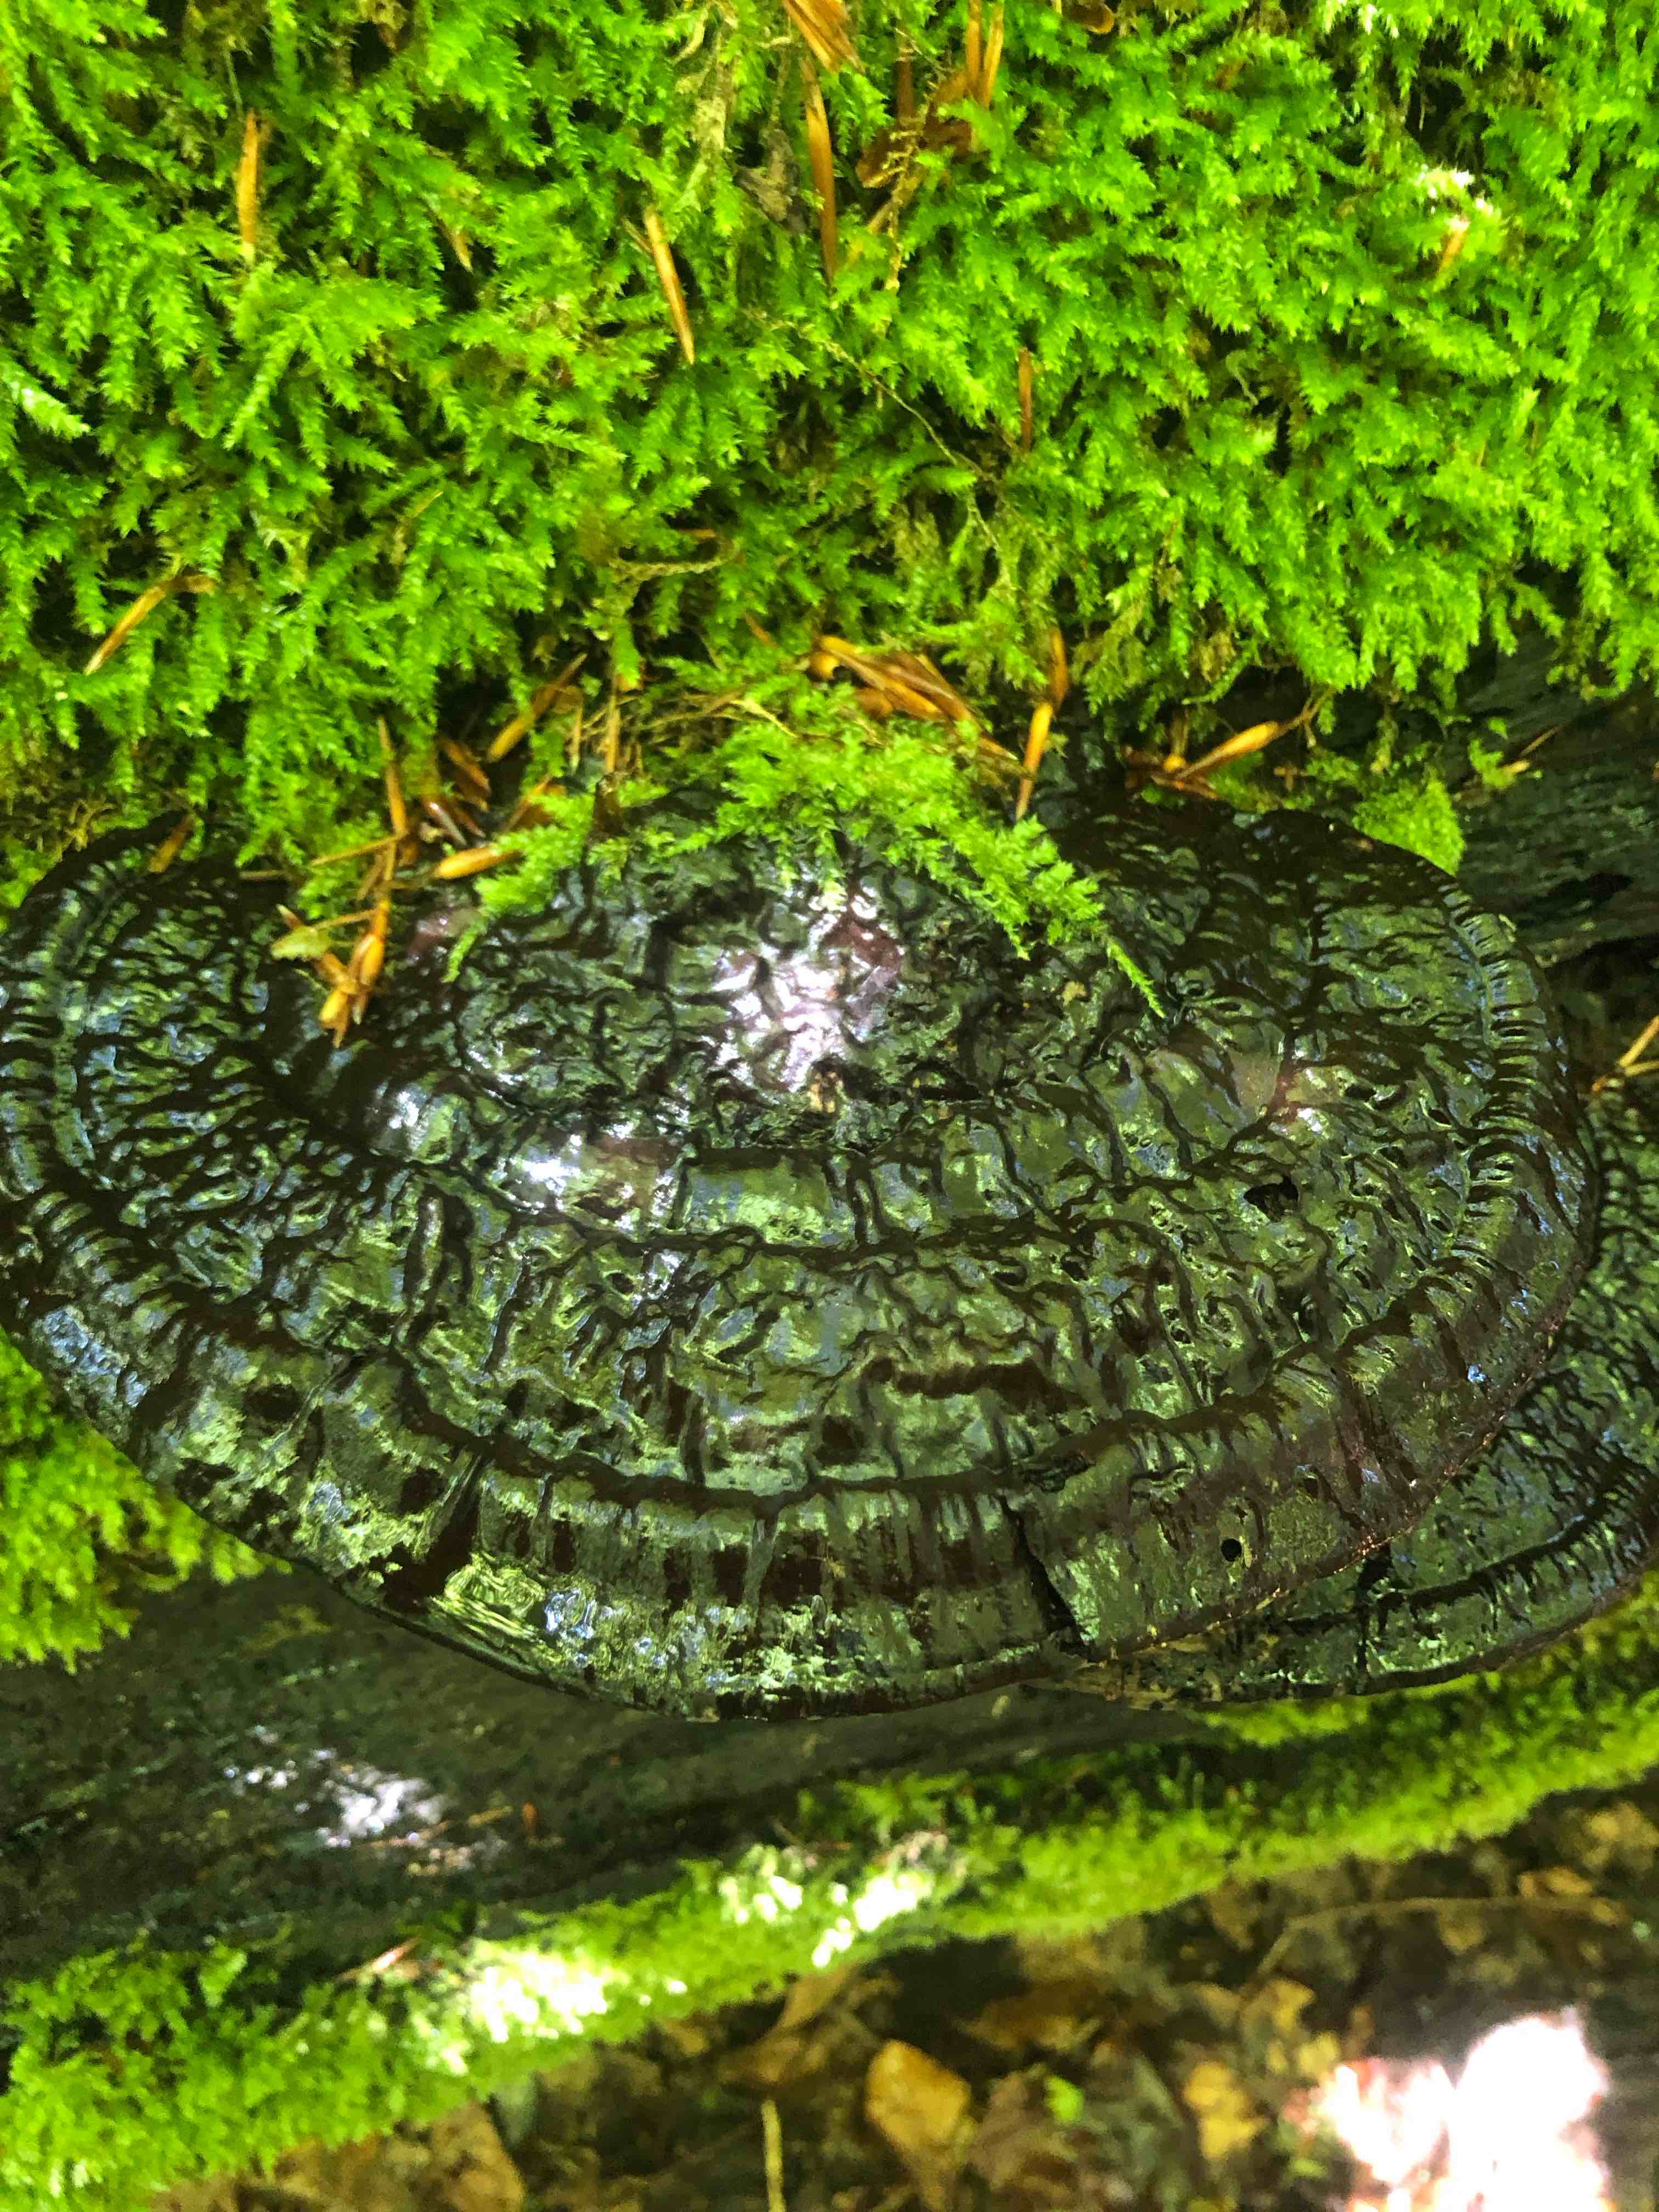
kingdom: Fungi
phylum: Basidiomycota
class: Agaricomycetes
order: Polyporales
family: Polyporaceae
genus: Ganoderma
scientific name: Ganoderma applanatum
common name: flad lakporesvamp
